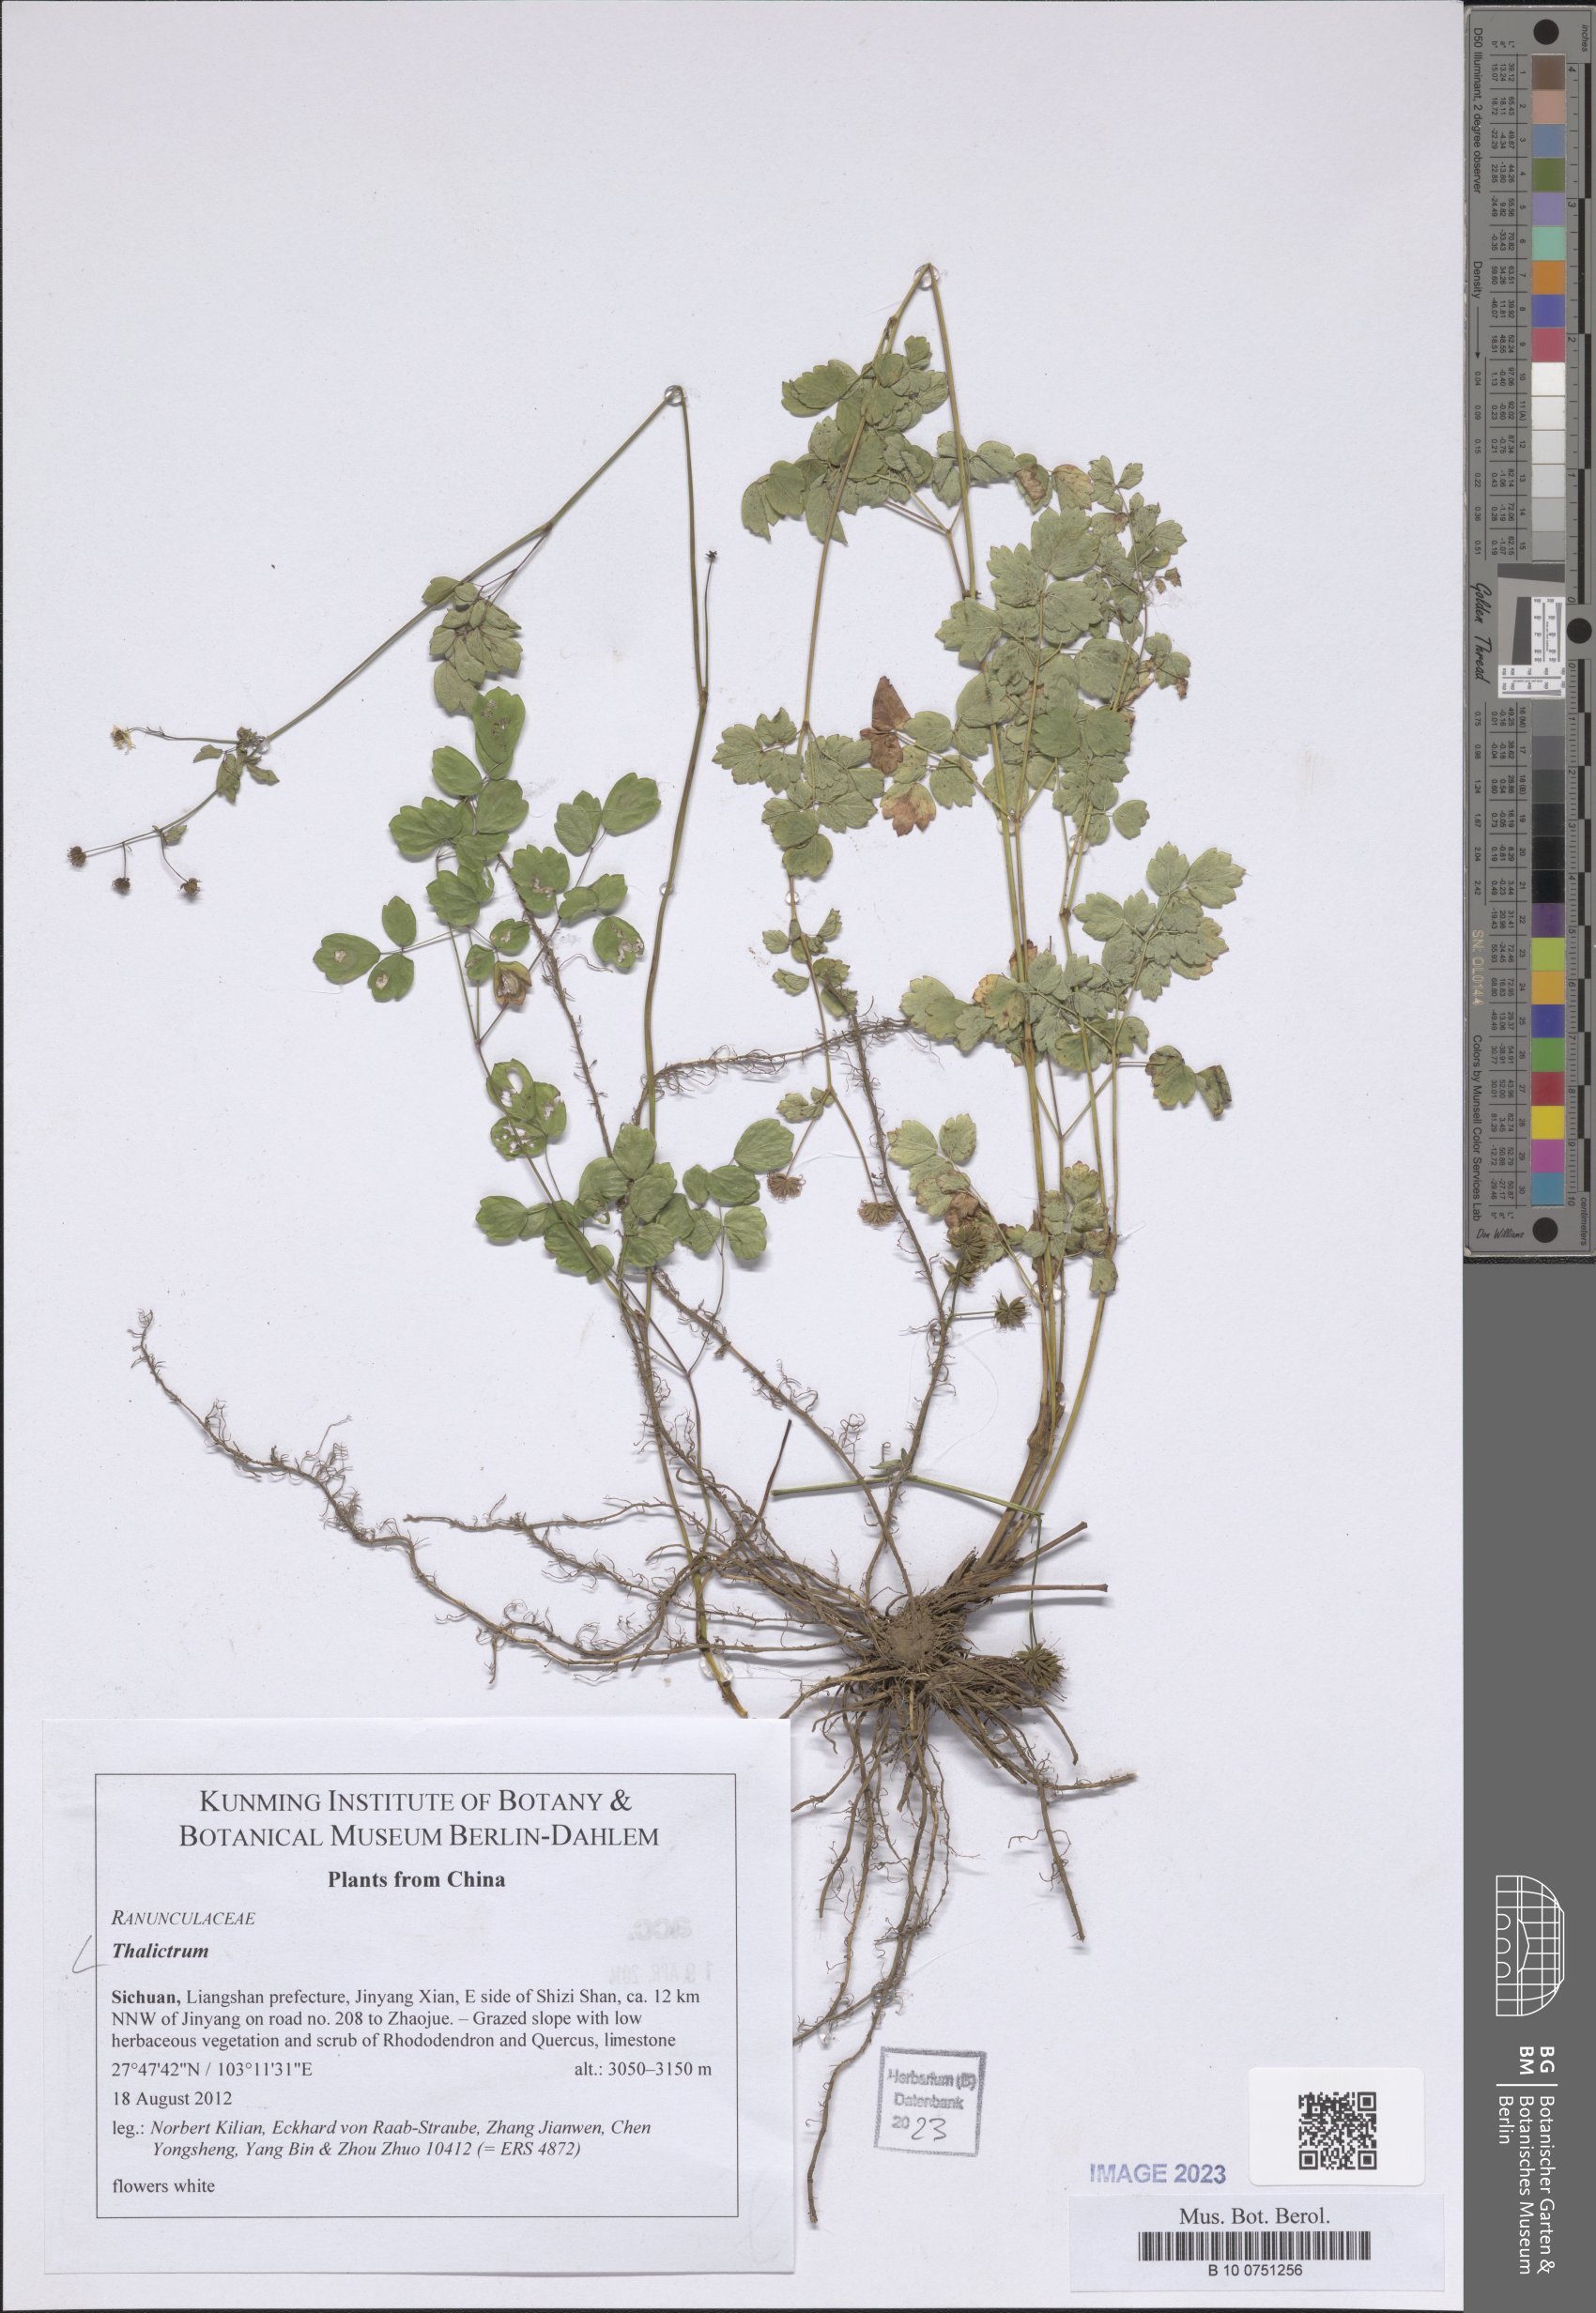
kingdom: Plantae
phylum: Tracheophyta
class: Magnoliopsida
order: Ranunculales
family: Ranunculaceae
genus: Thalictrum
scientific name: Thalictrum
